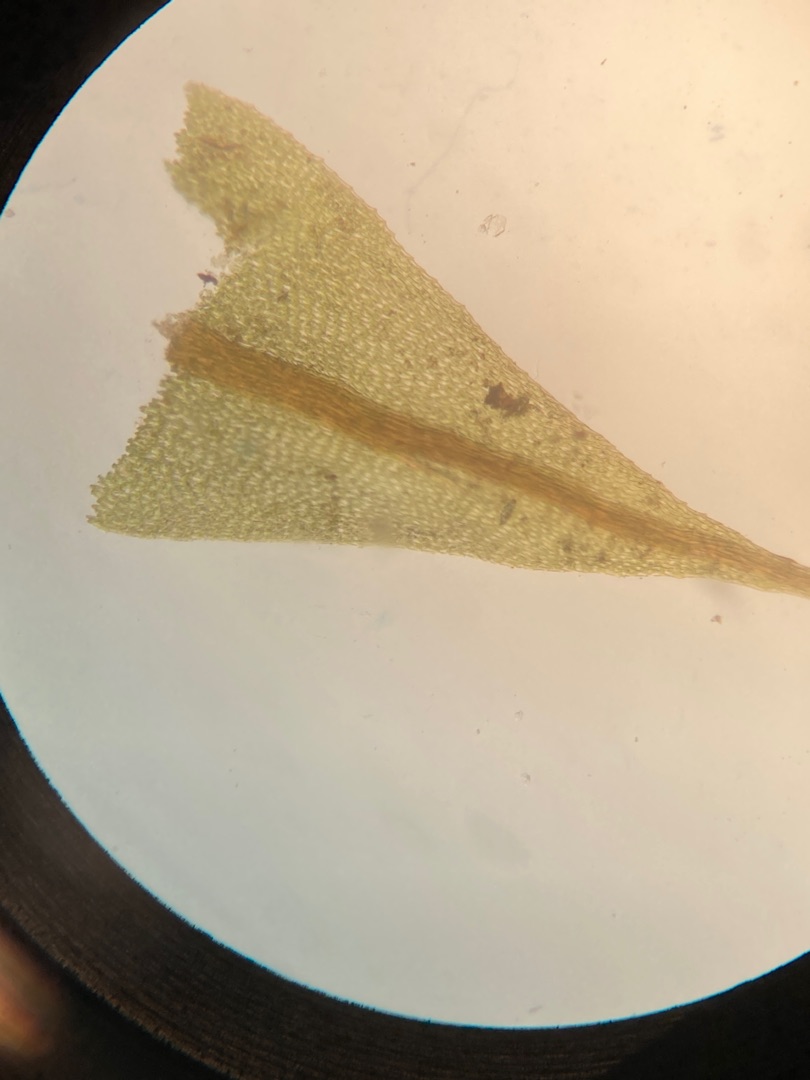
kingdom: Plantae
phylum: Bryophyta
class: Bryopsida
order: Hypnales
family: Amblystegiaceae
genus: Cratoneuron
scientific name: Cratoneuron filicinum
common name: Grøn eremitmos
